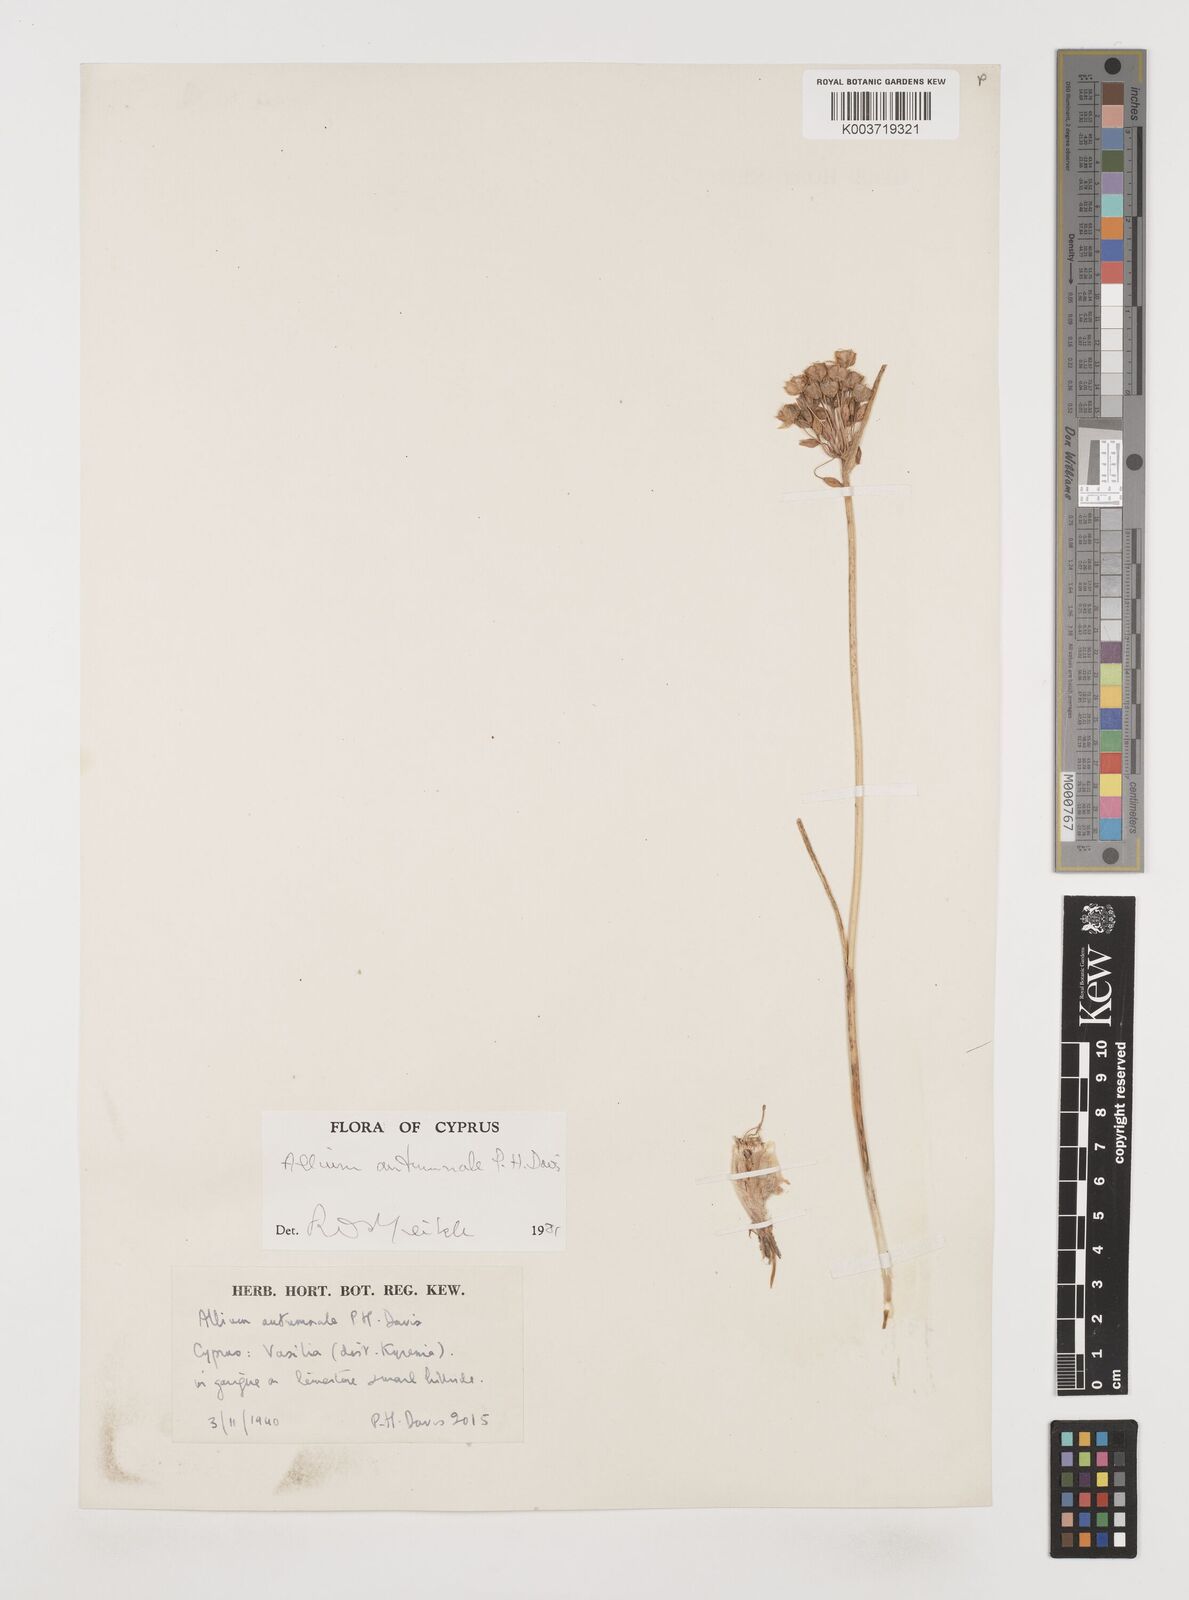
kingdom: Plantae
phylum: Tracheophyta
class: Liliopsida
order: Asparagales
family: Amaryllidaceae
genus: Allium
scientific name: Allium autumnale
